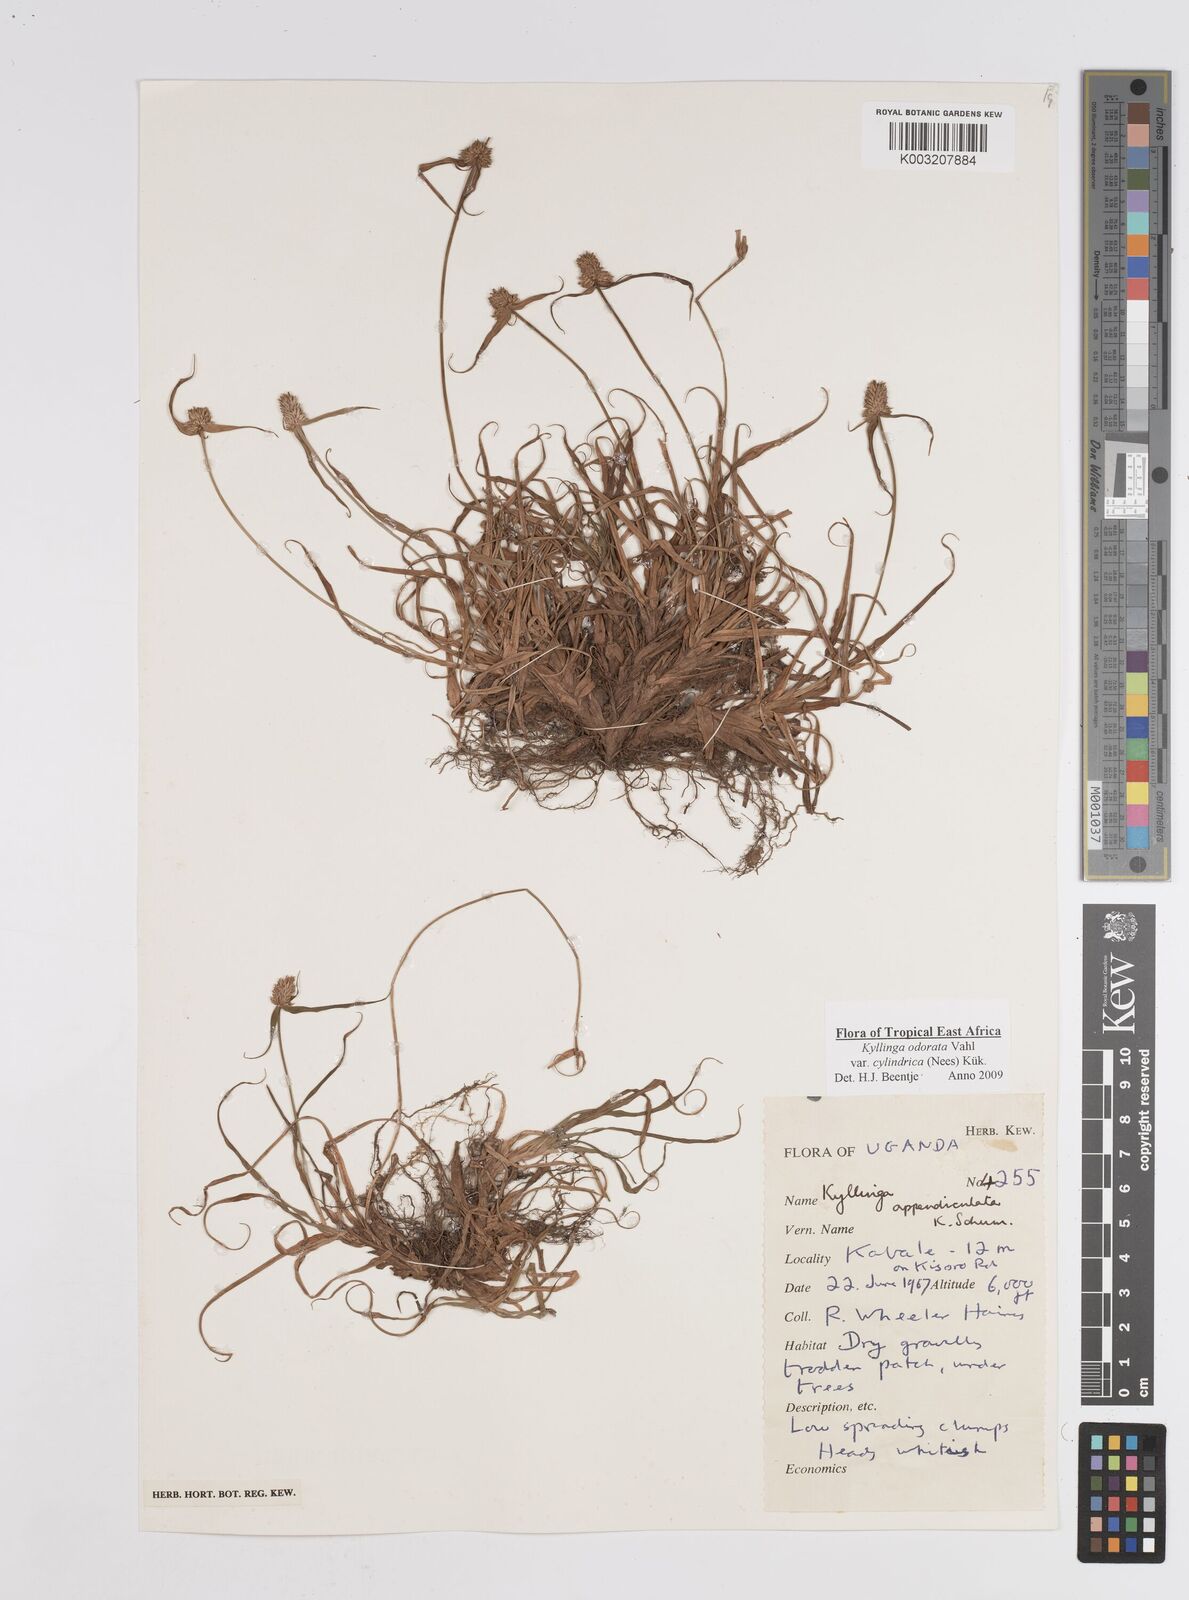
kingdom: Plantae
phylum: Tracheophyta
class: Liliopsida
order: Poales
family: Cyperaceae
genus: Cyperus
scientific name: Cyperus
